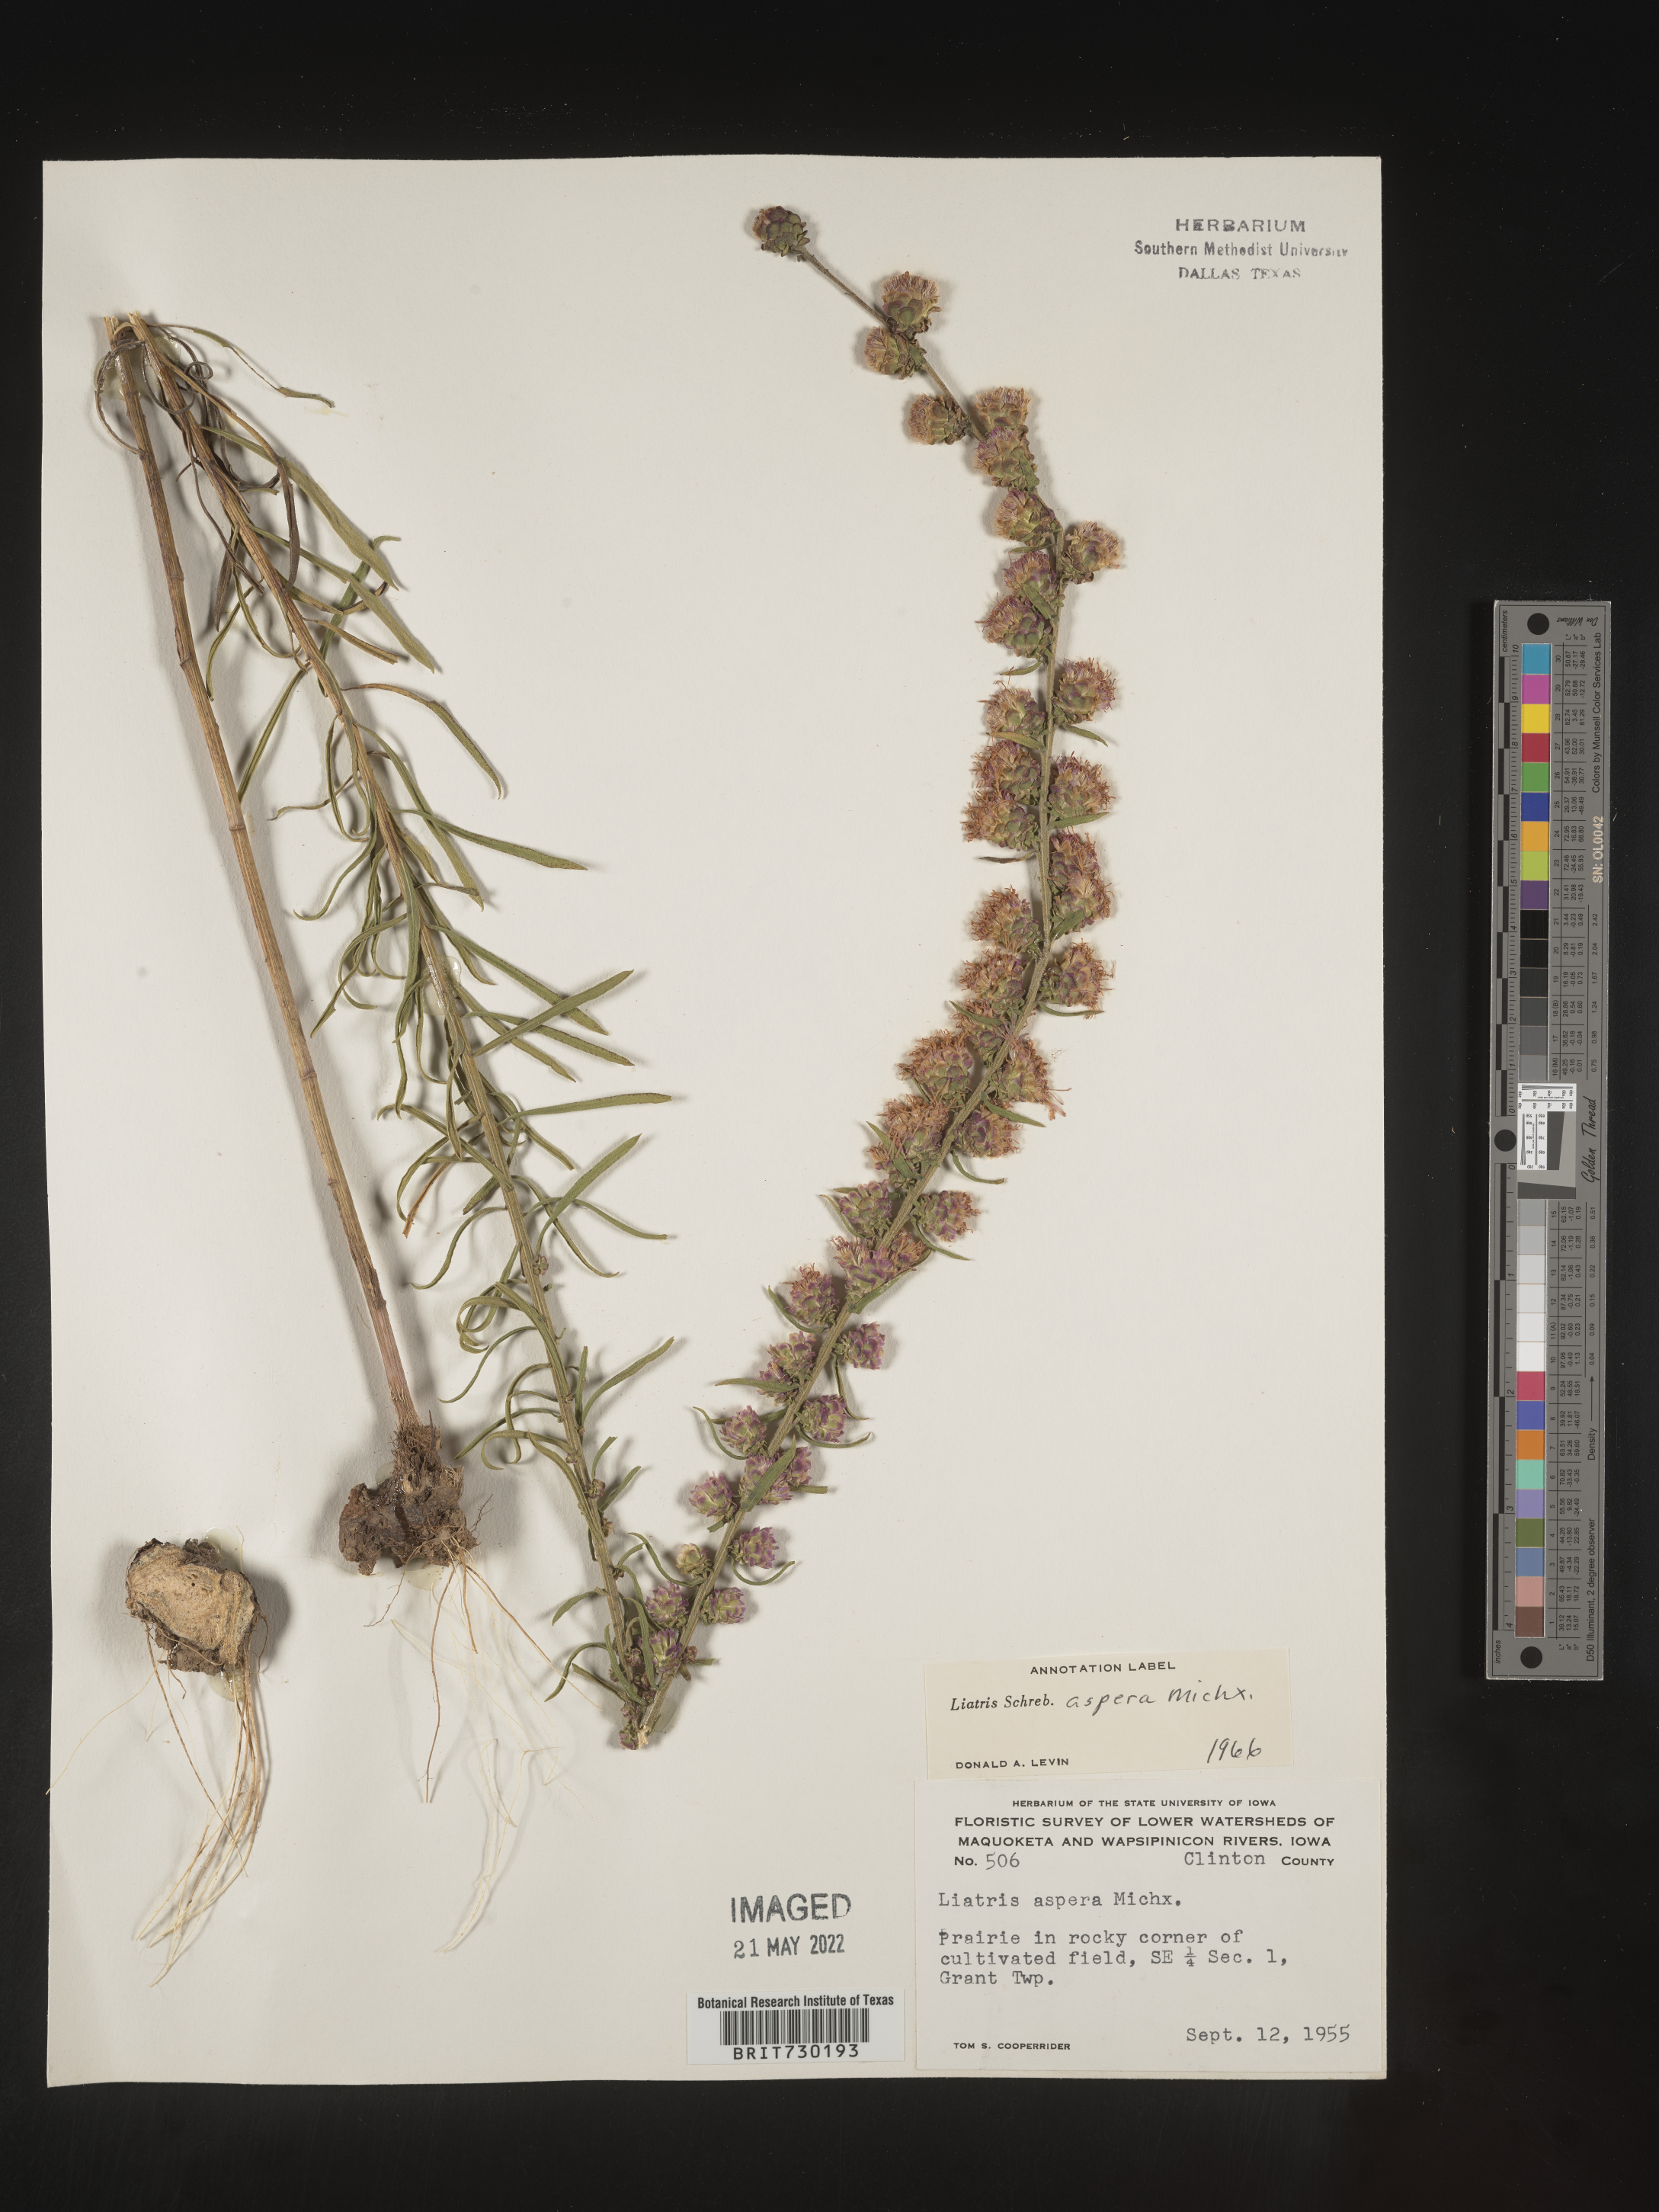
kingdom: Plantae
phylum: Tracheophyta
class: Magnoliopsida
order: Asterales
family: Asteraceae
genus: Liatris
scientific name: Liatris aspera
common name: Lacerate blazing-star
